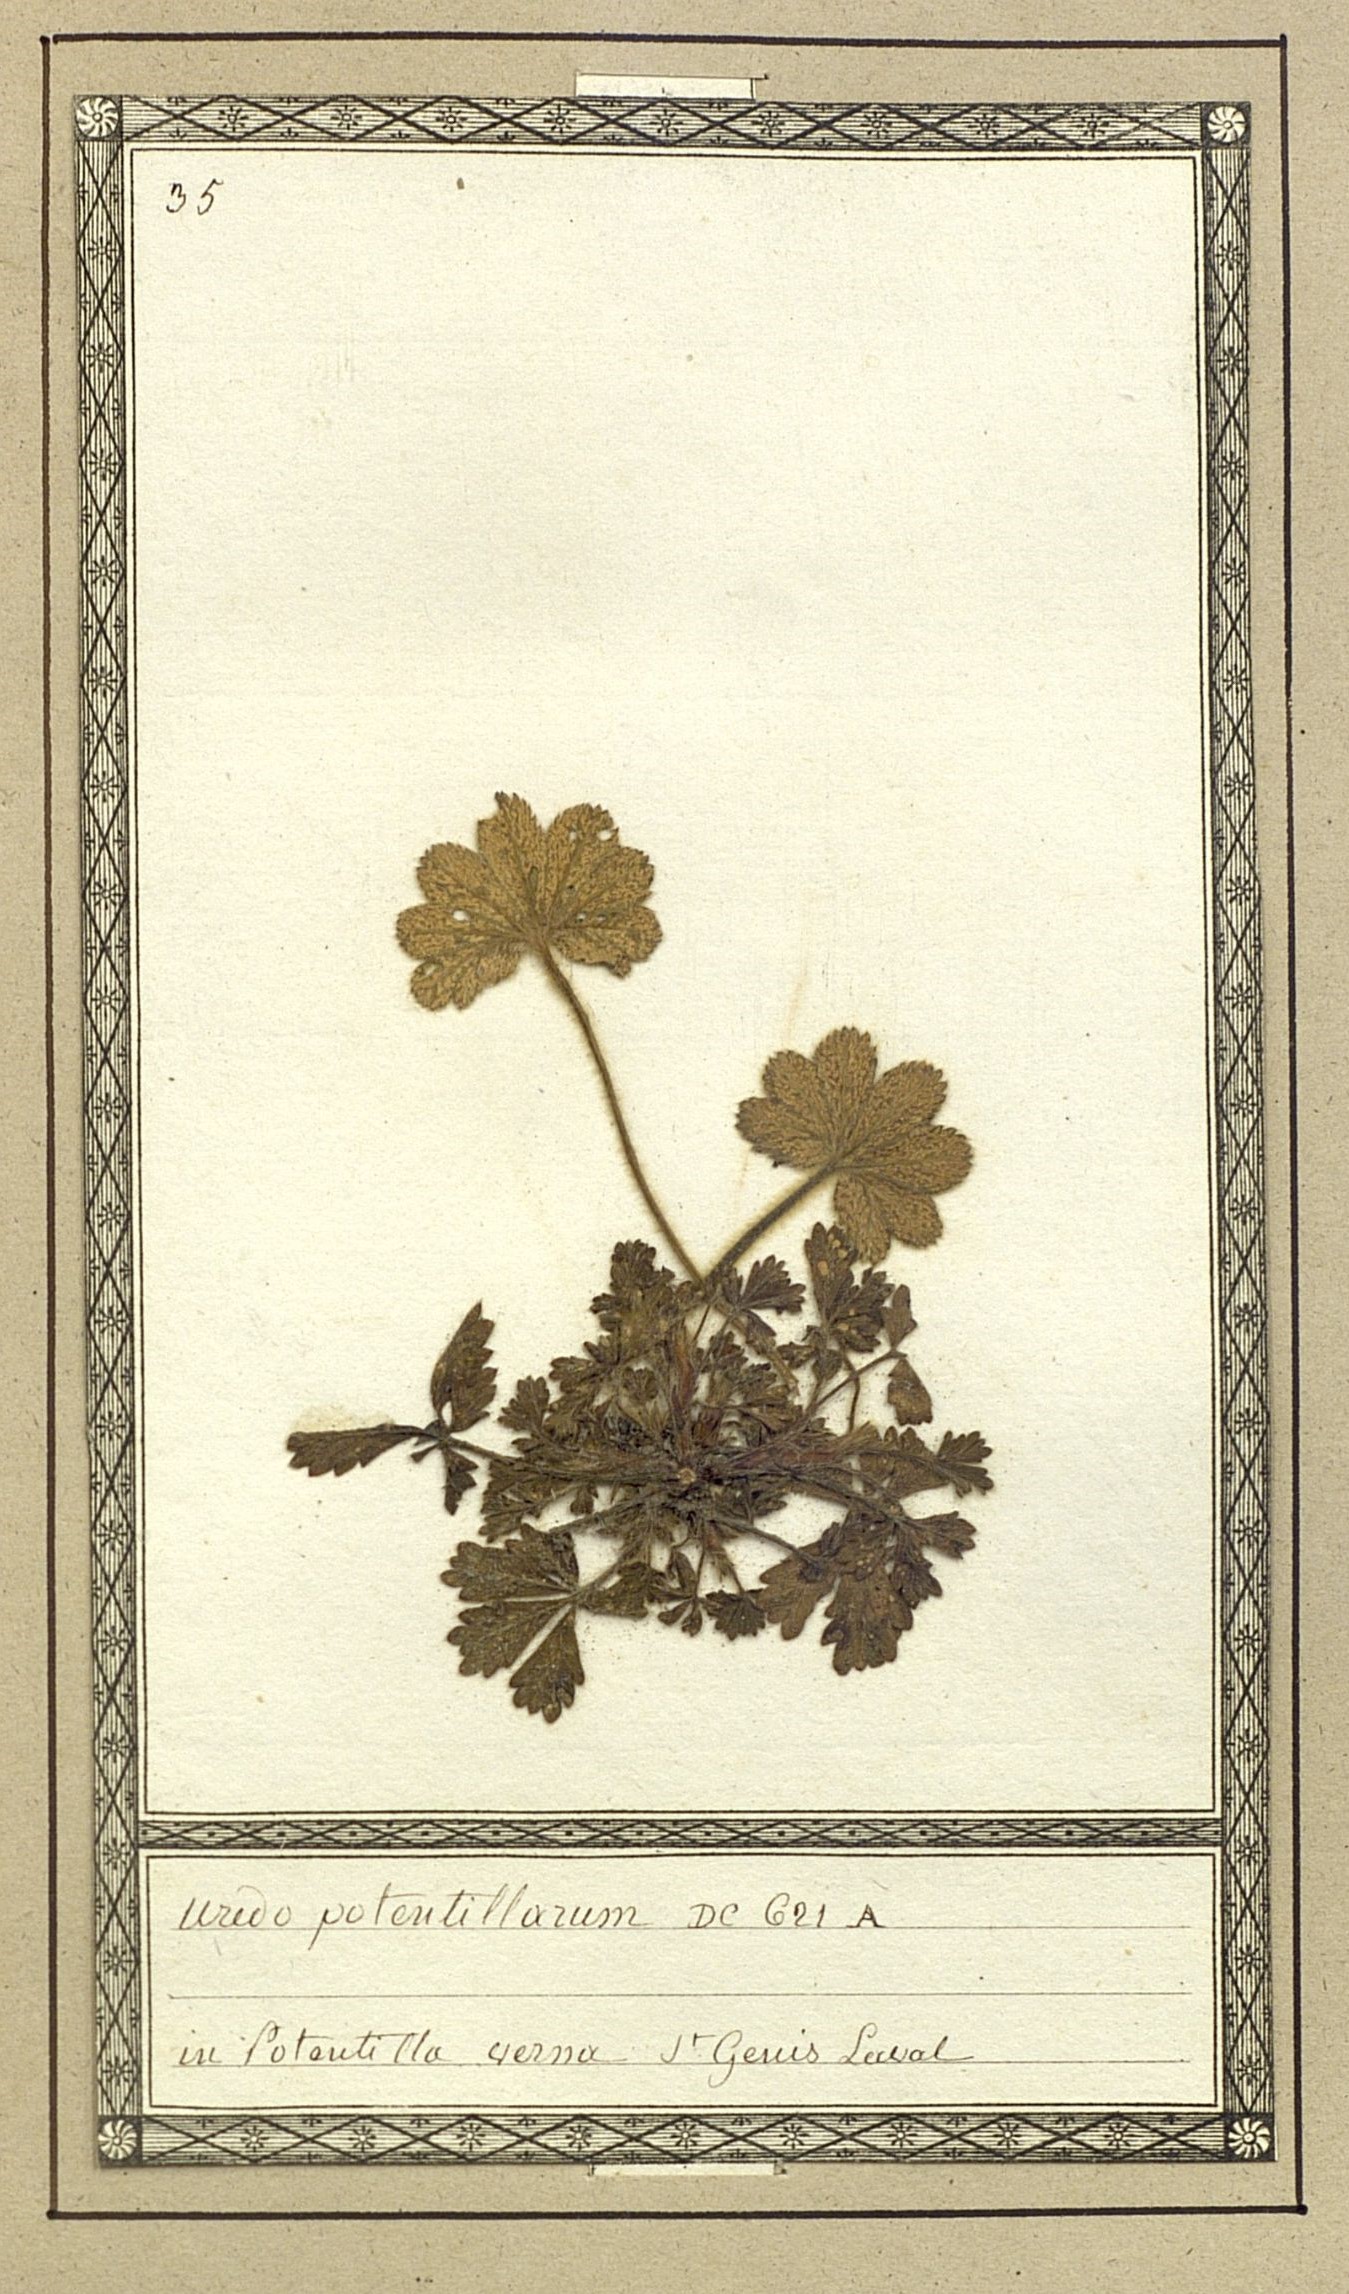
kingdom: Fungi
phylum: Basidiomycota
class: Pucciniomycetes
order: Pucciniales
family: Pucciniaceae
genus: Uredo
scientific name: Uredo potentillarum
